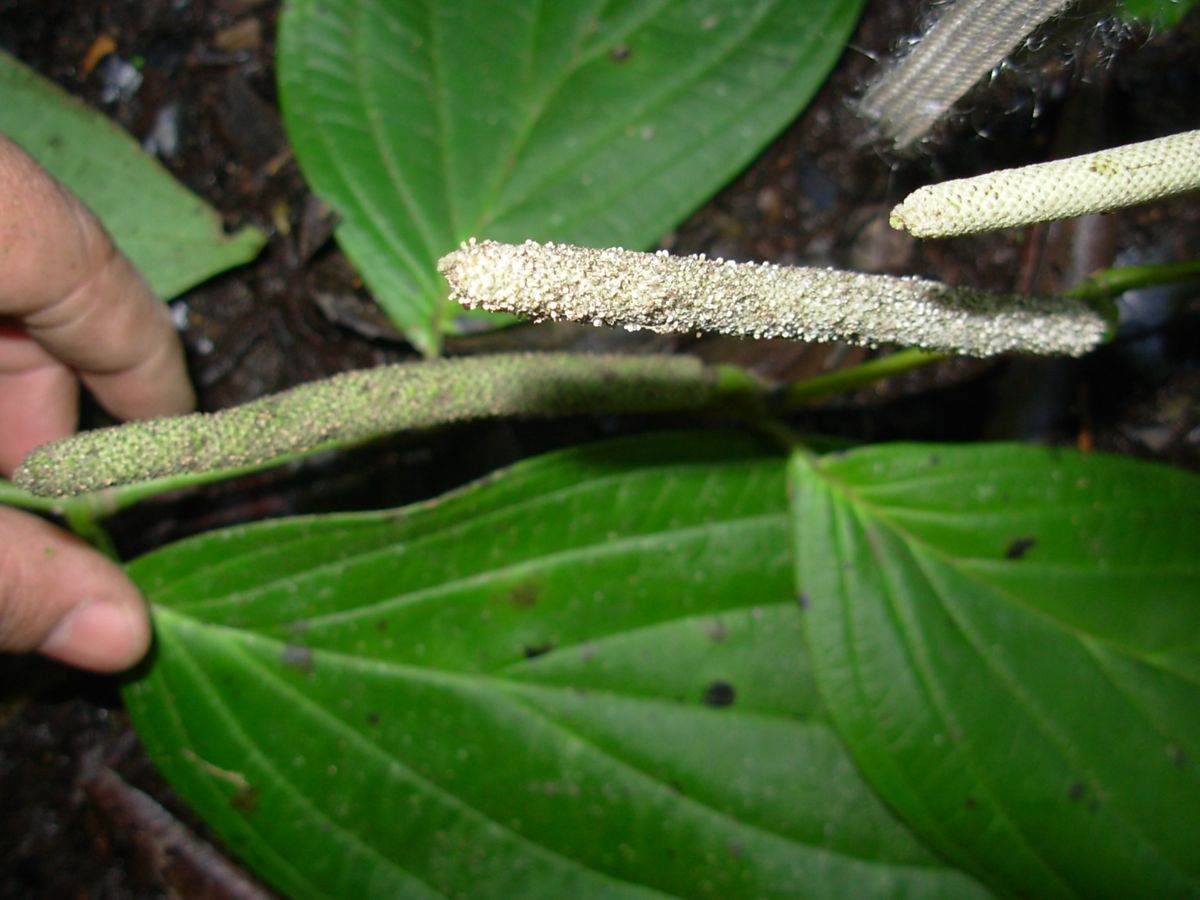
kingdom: Plantae
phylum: Tracheophyta
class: Magnoliopsida
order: Piperales
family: Piperaceae
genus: Piper
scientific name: Piper arborioccupans
